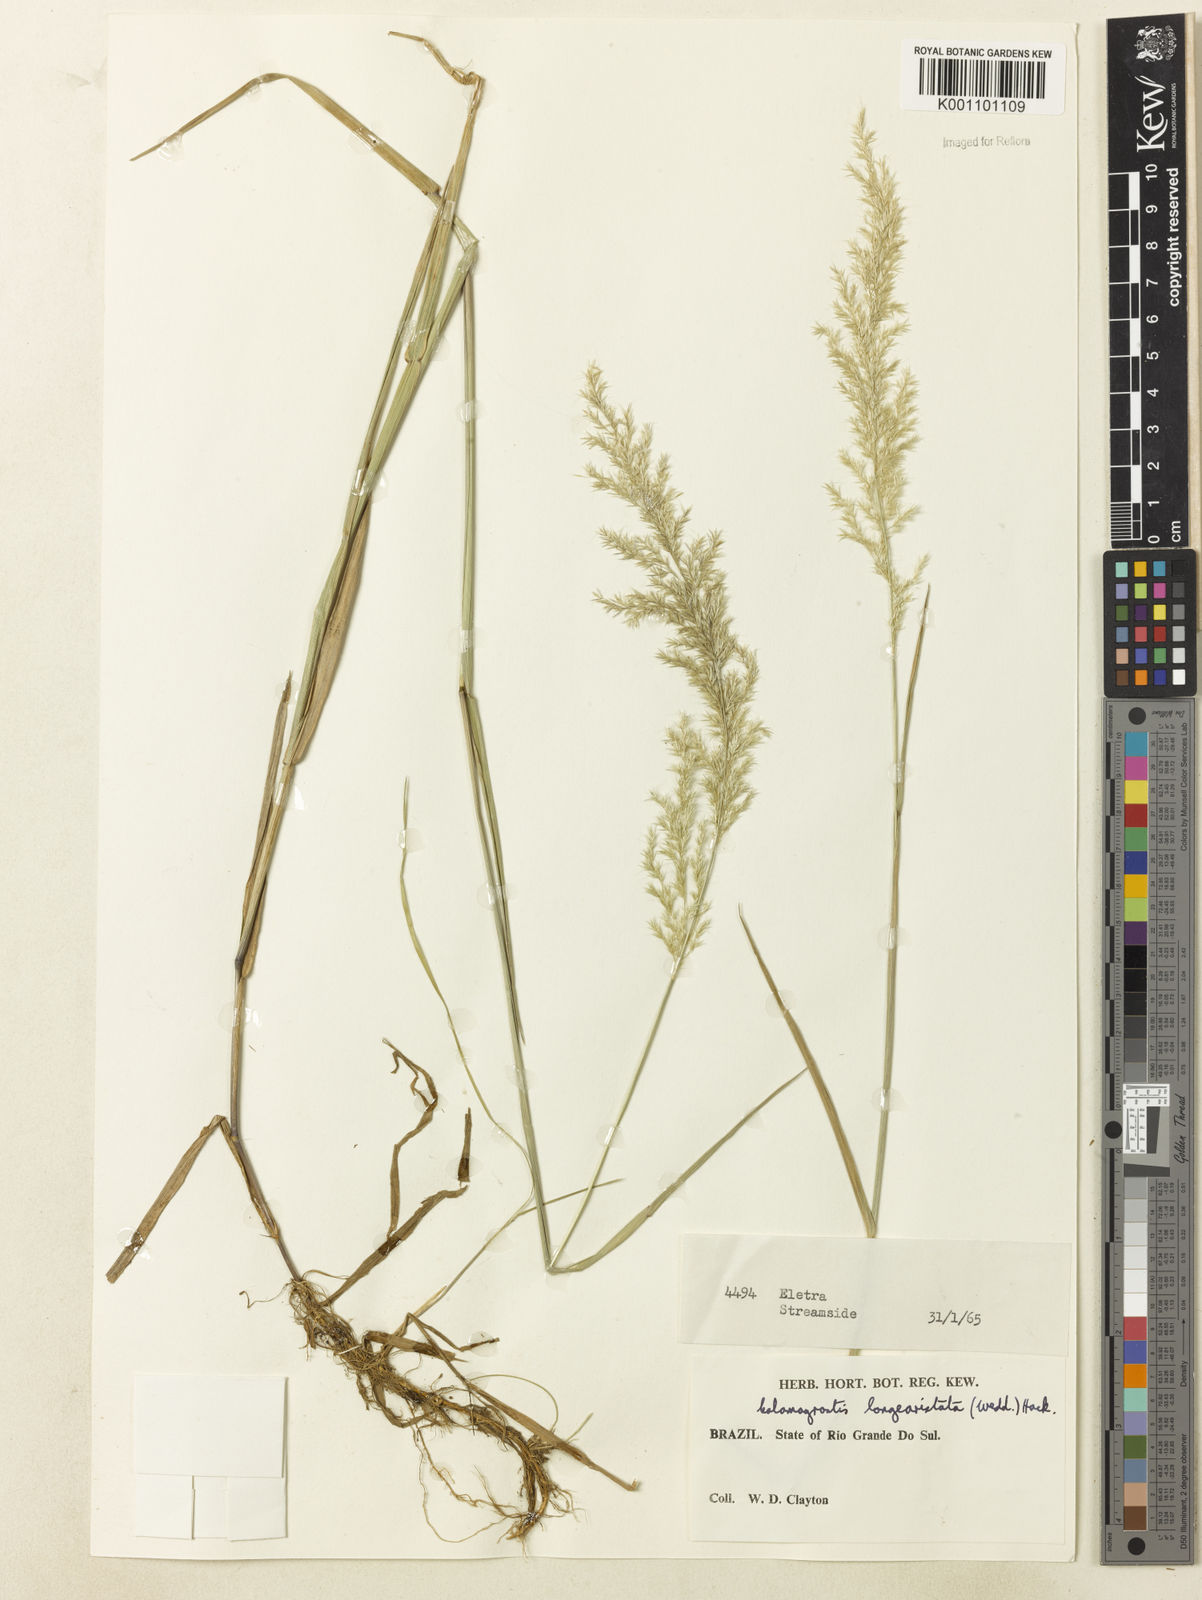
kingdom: Plantae
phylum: Tracheophyta
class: Liliopsida
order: Poales
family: Poaceae
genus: Cinnagrostis
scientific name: Cinnagrostis viridiflavescens
